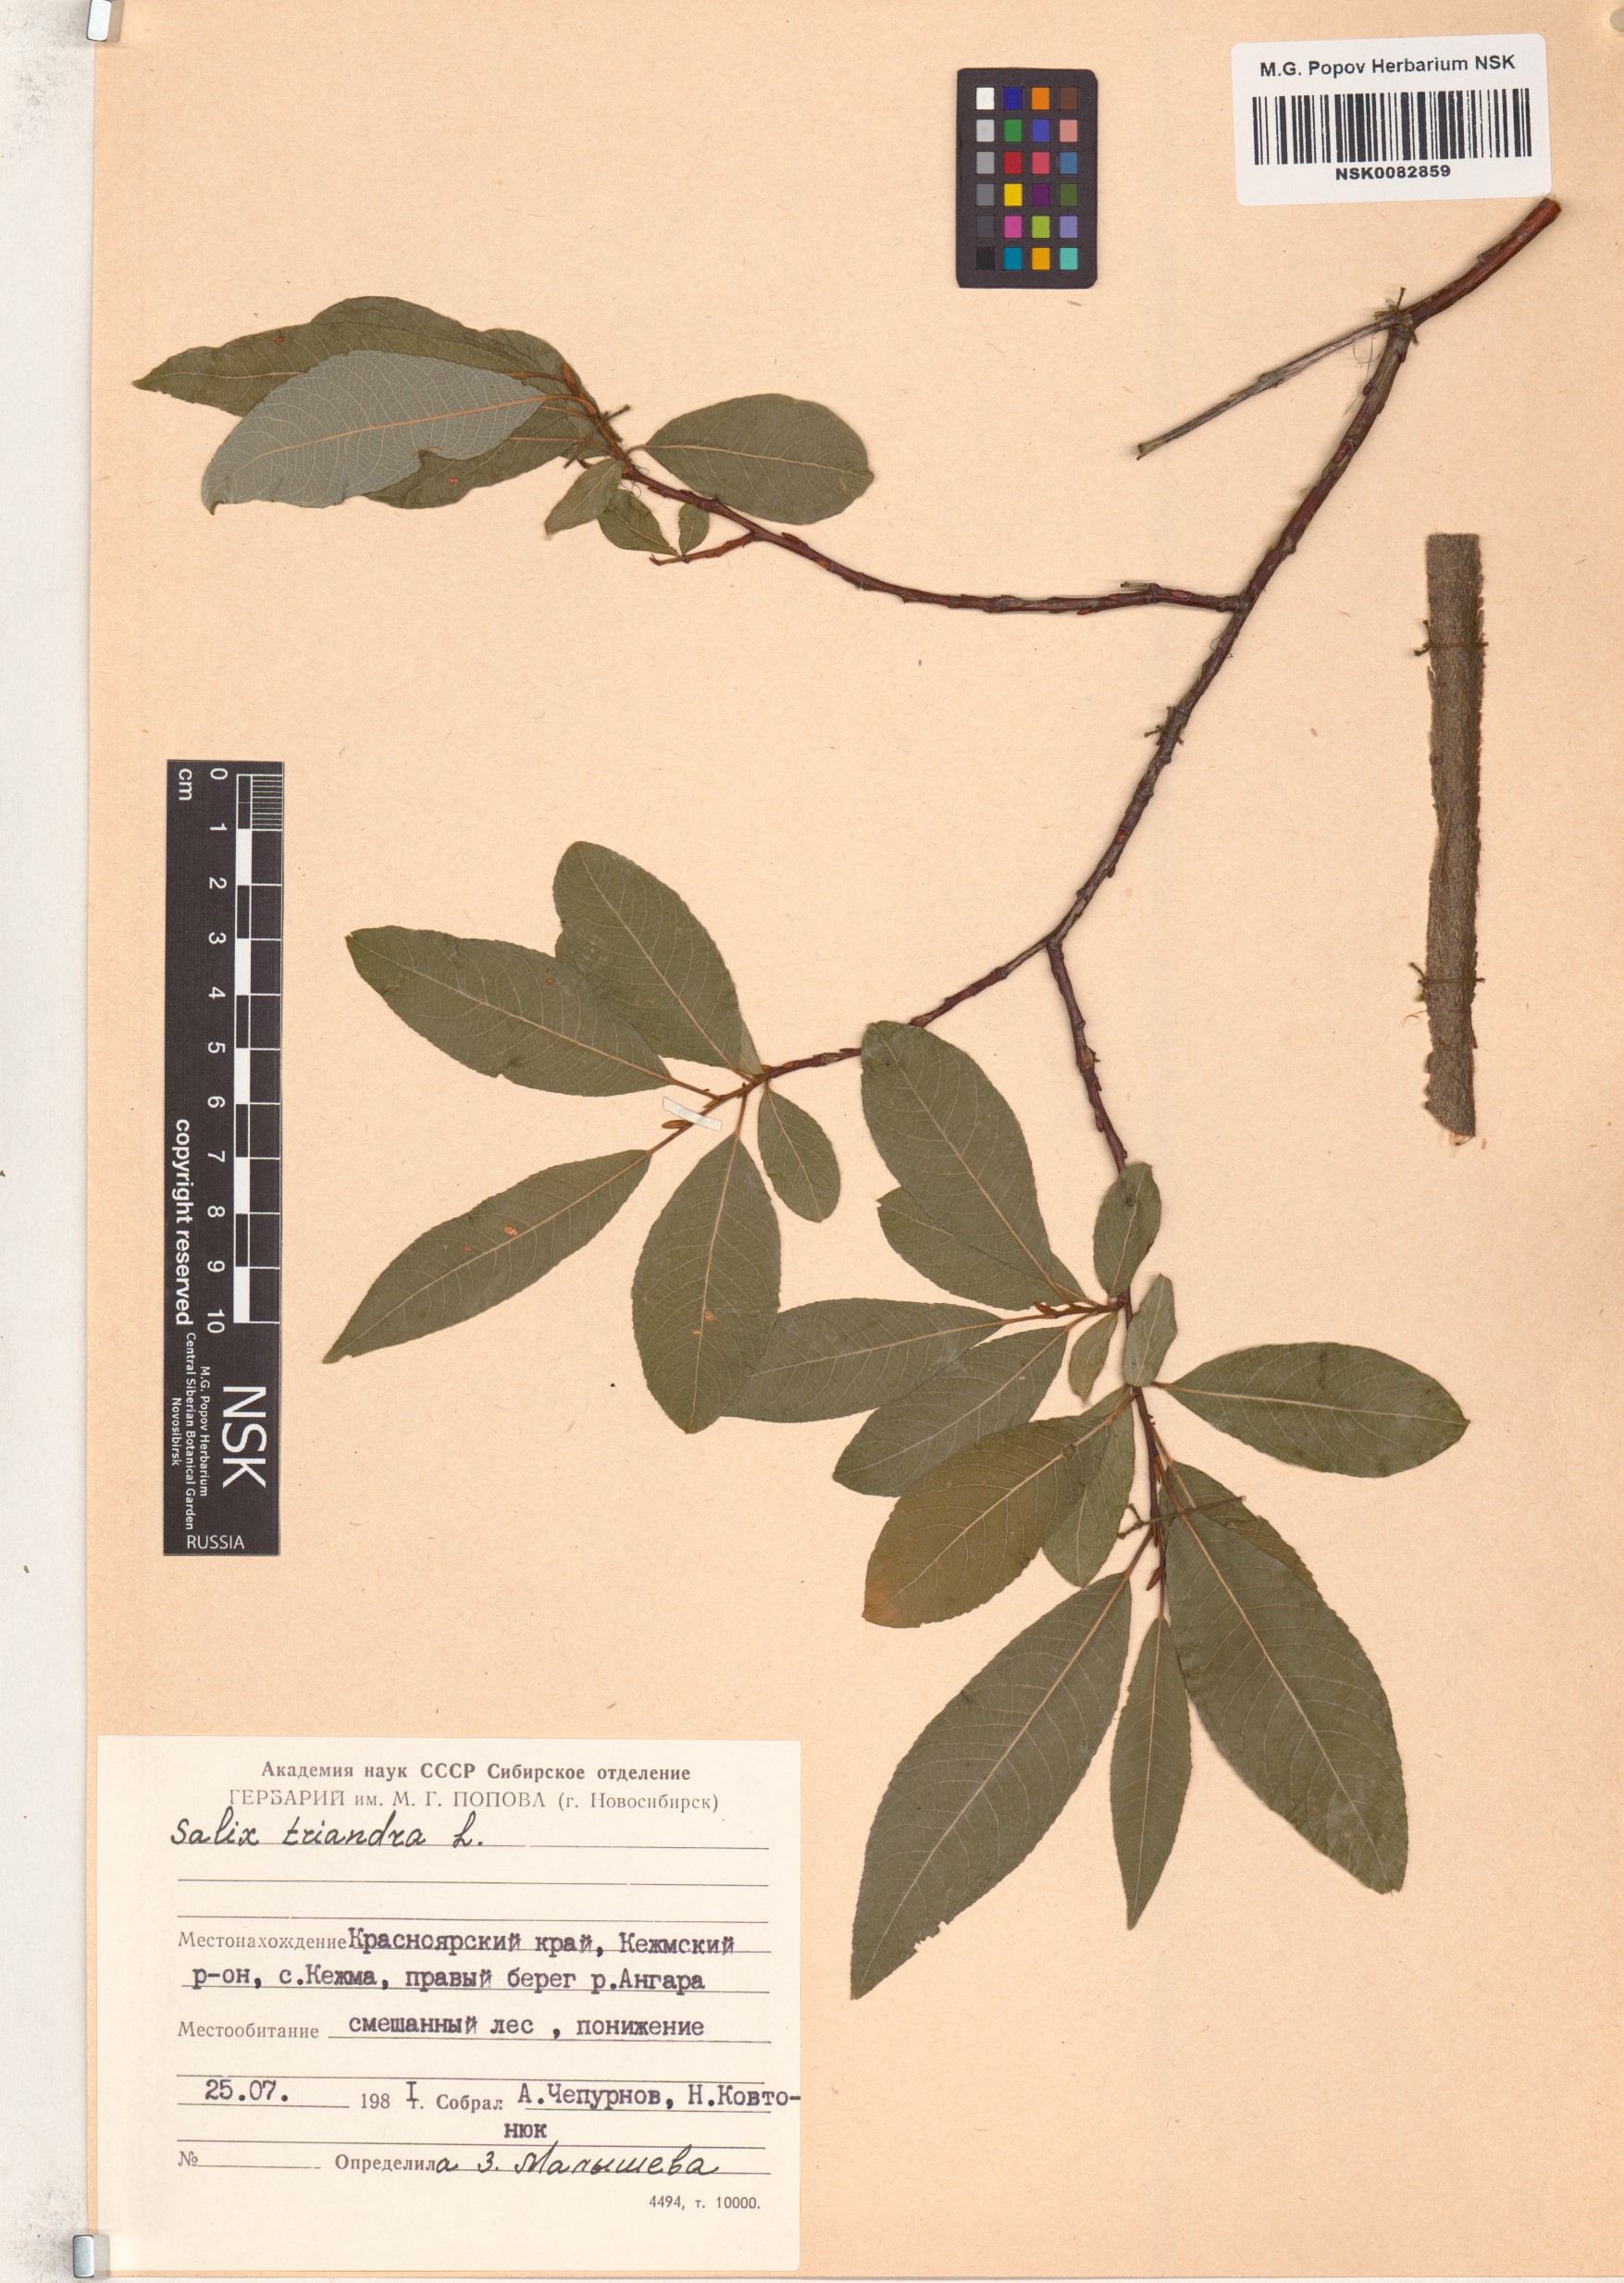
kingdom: Plantae
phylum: Tracheophyta
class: Magnoliopsida
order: Malpighiales
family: Salicaceae
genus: Salix
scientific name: Salix triandra
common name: Almond willow
